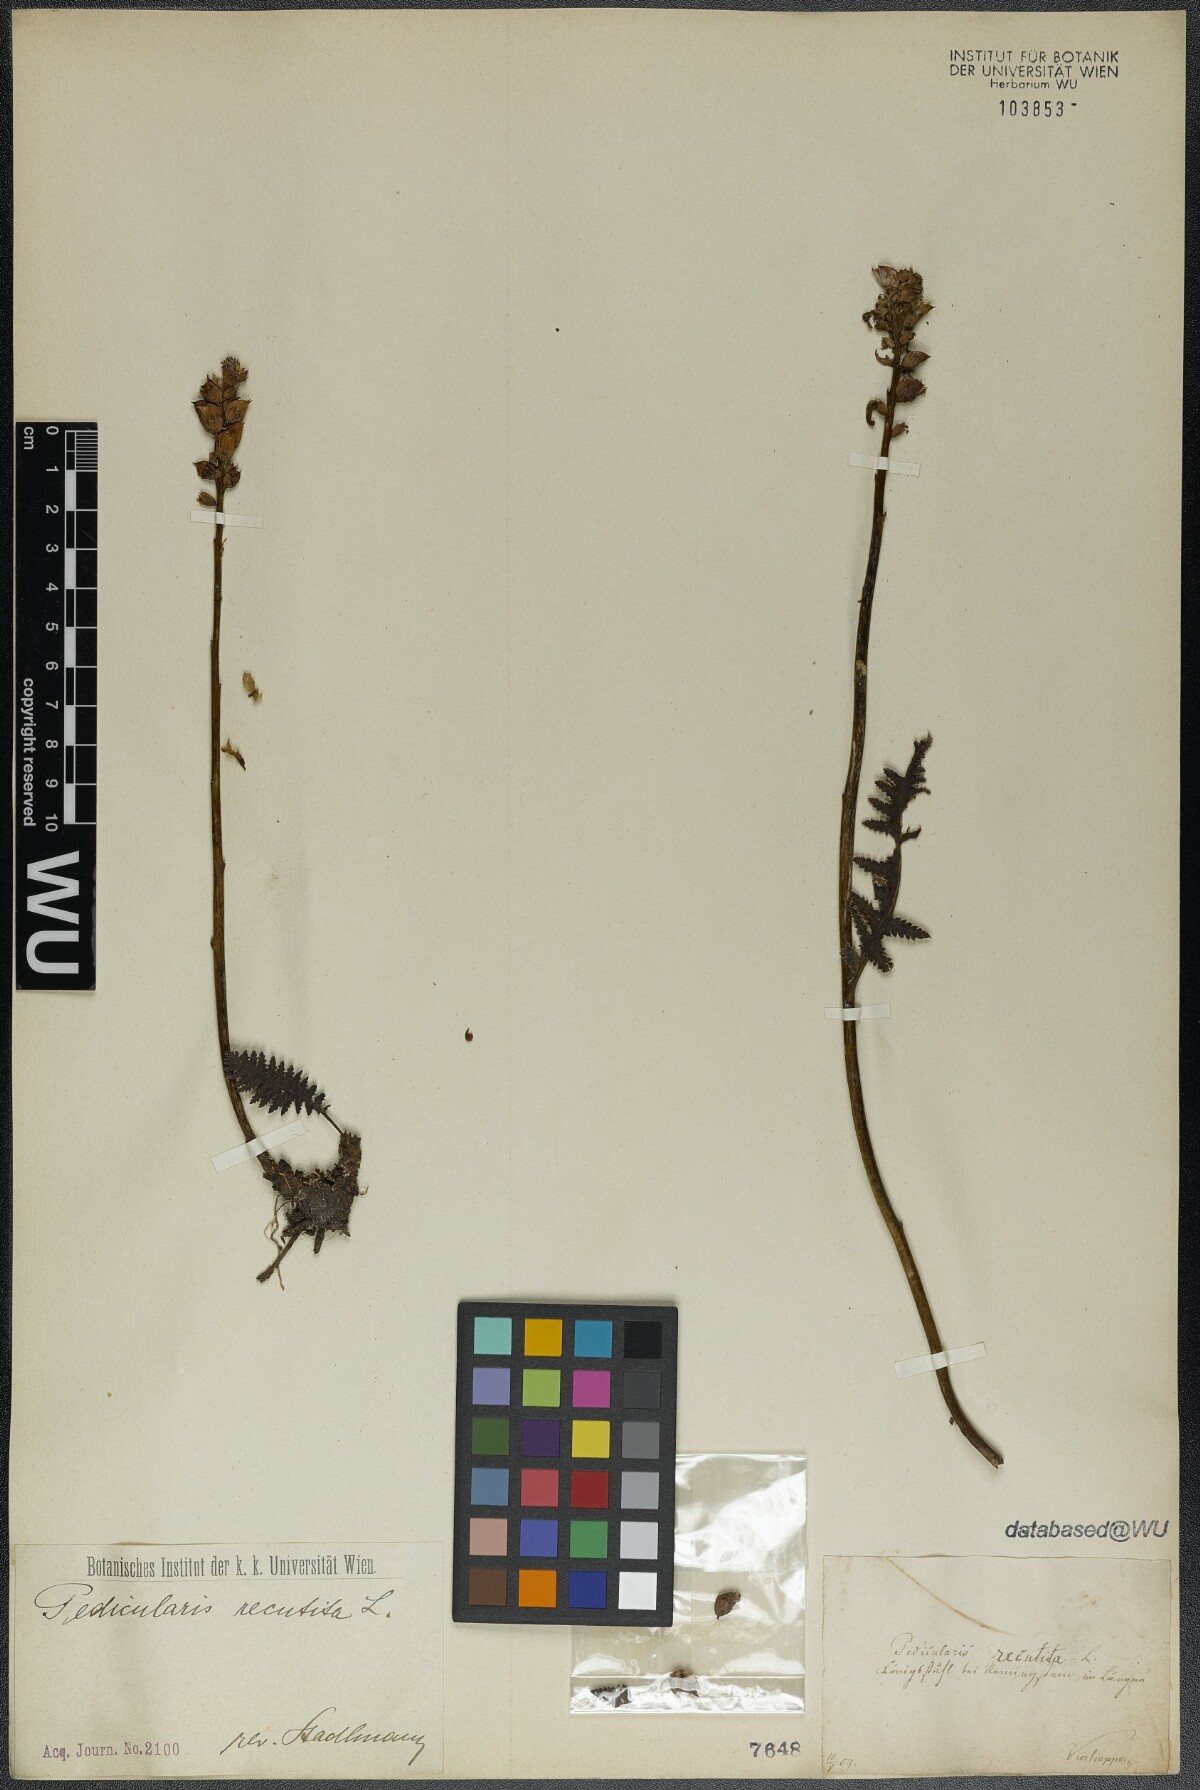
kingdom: Plantae
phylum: Tracheophyta
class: Magnoliopsida
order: Lamiales
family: Orobanchaceae
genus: Pedicularis
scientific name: Pedicularis recutita
